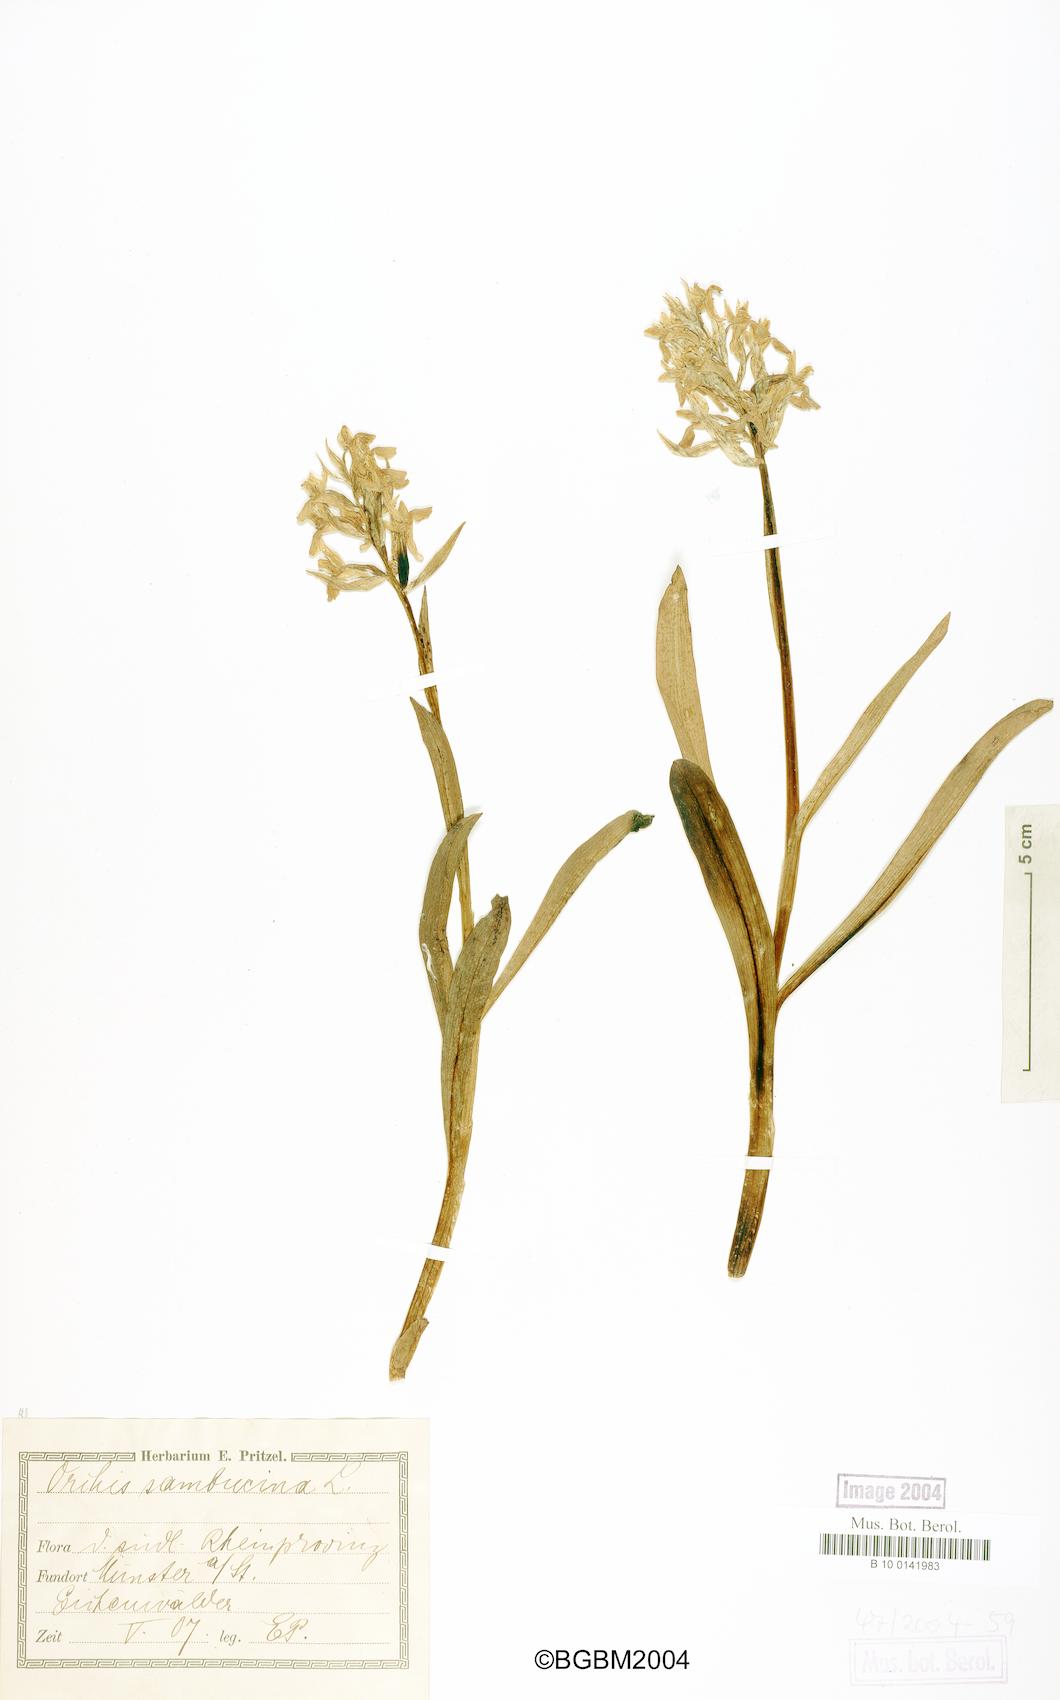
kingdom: Plantae
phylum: Tracheophyta
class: Liliopsida
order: Asparagales
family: Orchidaceae
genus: Dactylorhiza
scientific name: Dactylorhiza sambucina
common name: Elder-flowered orchid
